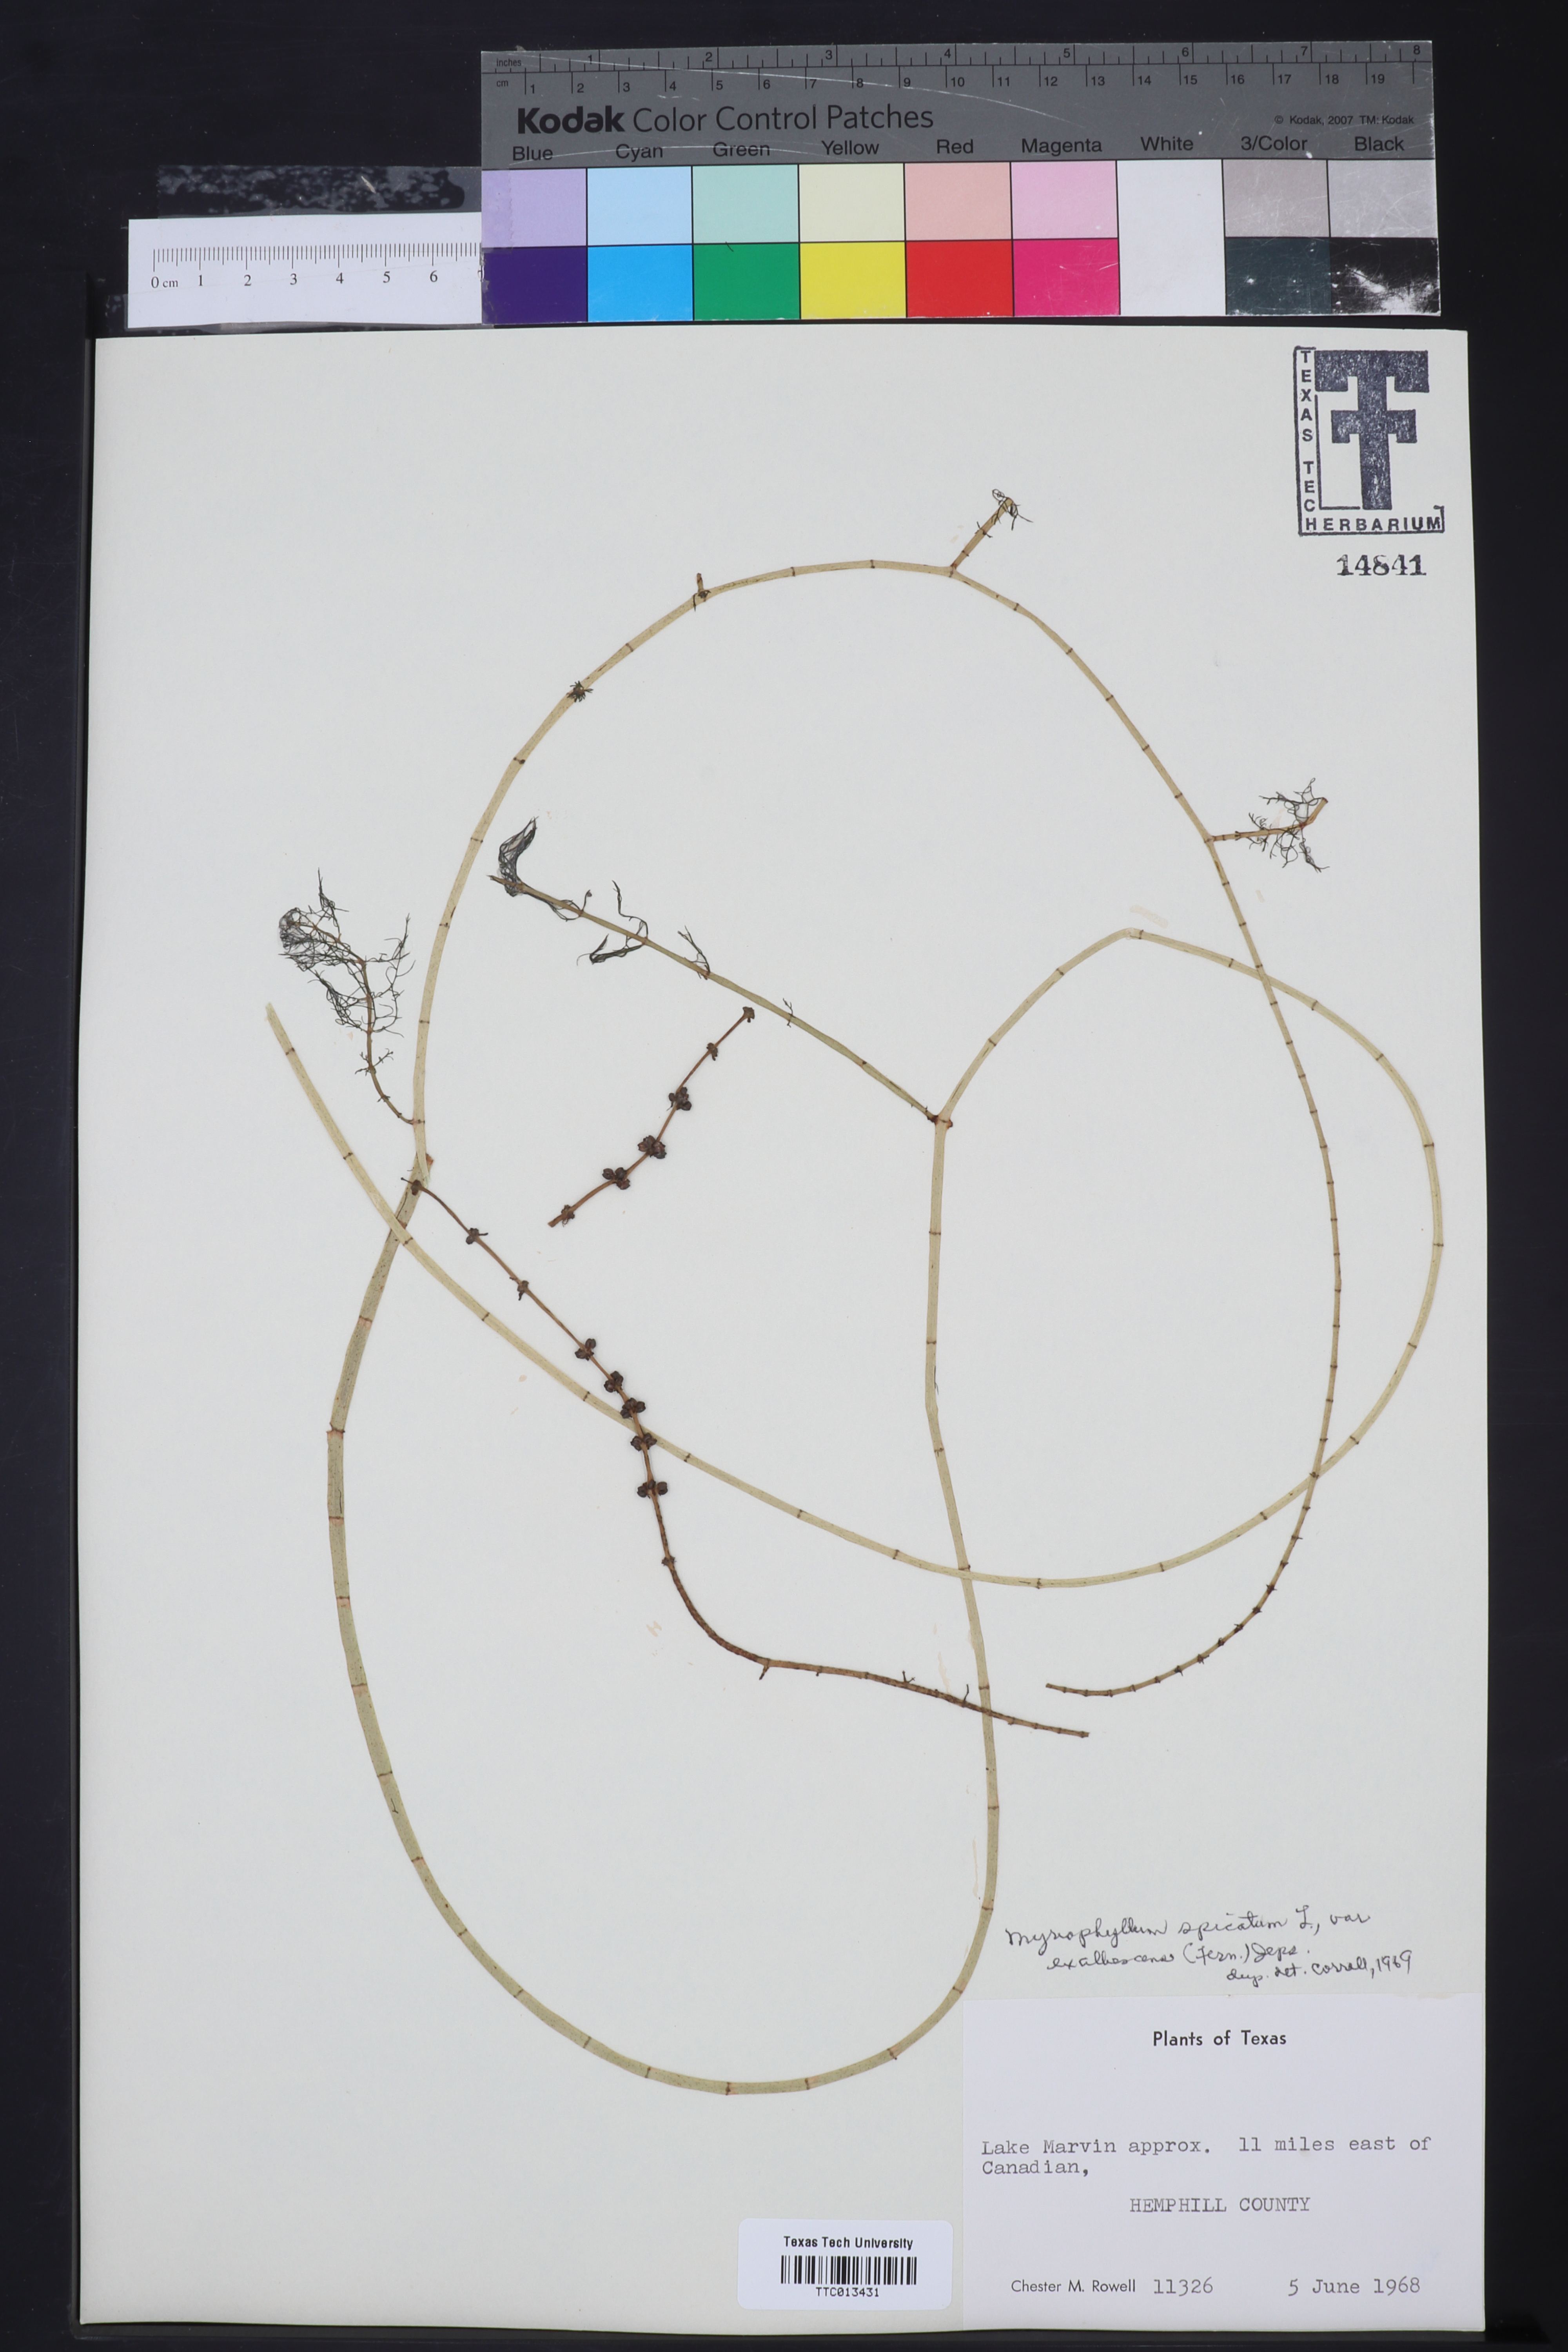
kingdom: Plantae
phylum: Tracheophyta
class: Magnoliopsida
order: Saxifragales
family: Haloragaceae
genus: Myriophyllum
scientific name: Myriophyllum sibiricum
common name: Siberian water-milfoil
